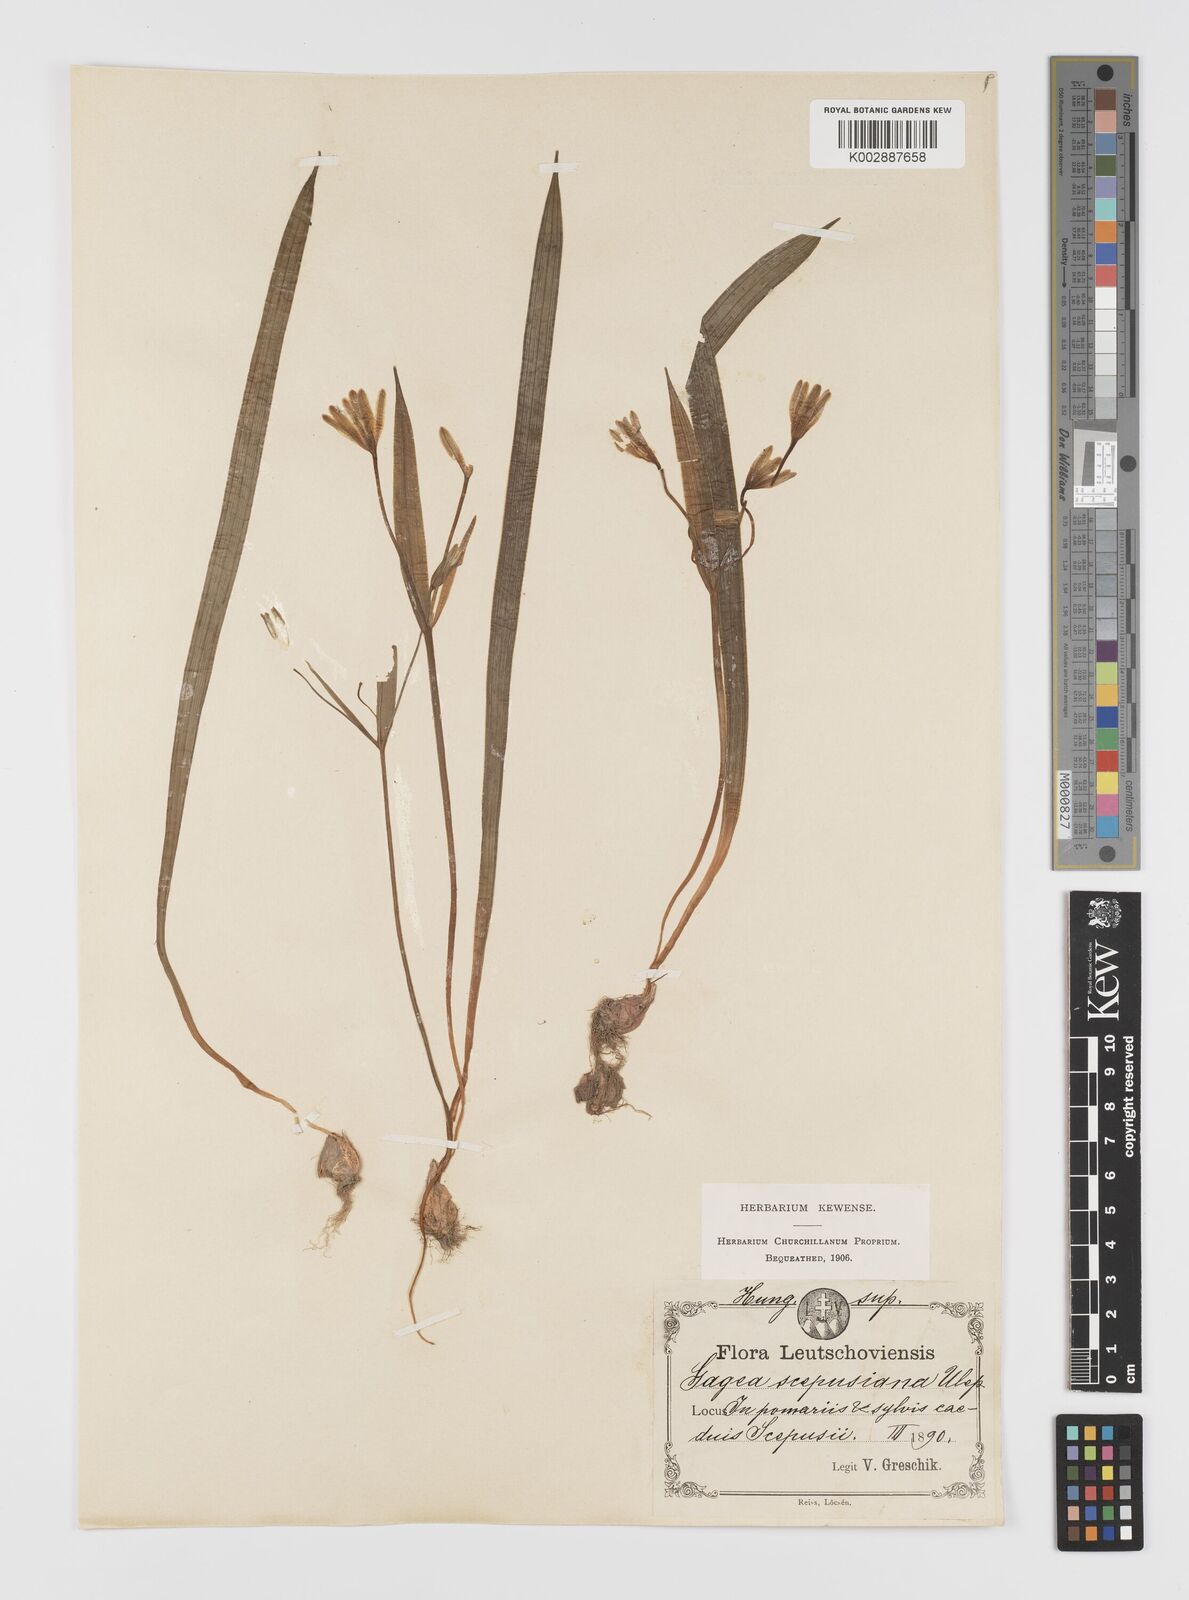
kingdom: Plantae
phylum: Tracheophyta
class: Liliopsida
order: Liliales
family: Liliaceae
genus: Gagea
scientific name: Gagea lutea
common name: Yellow star-of-bethlehem
